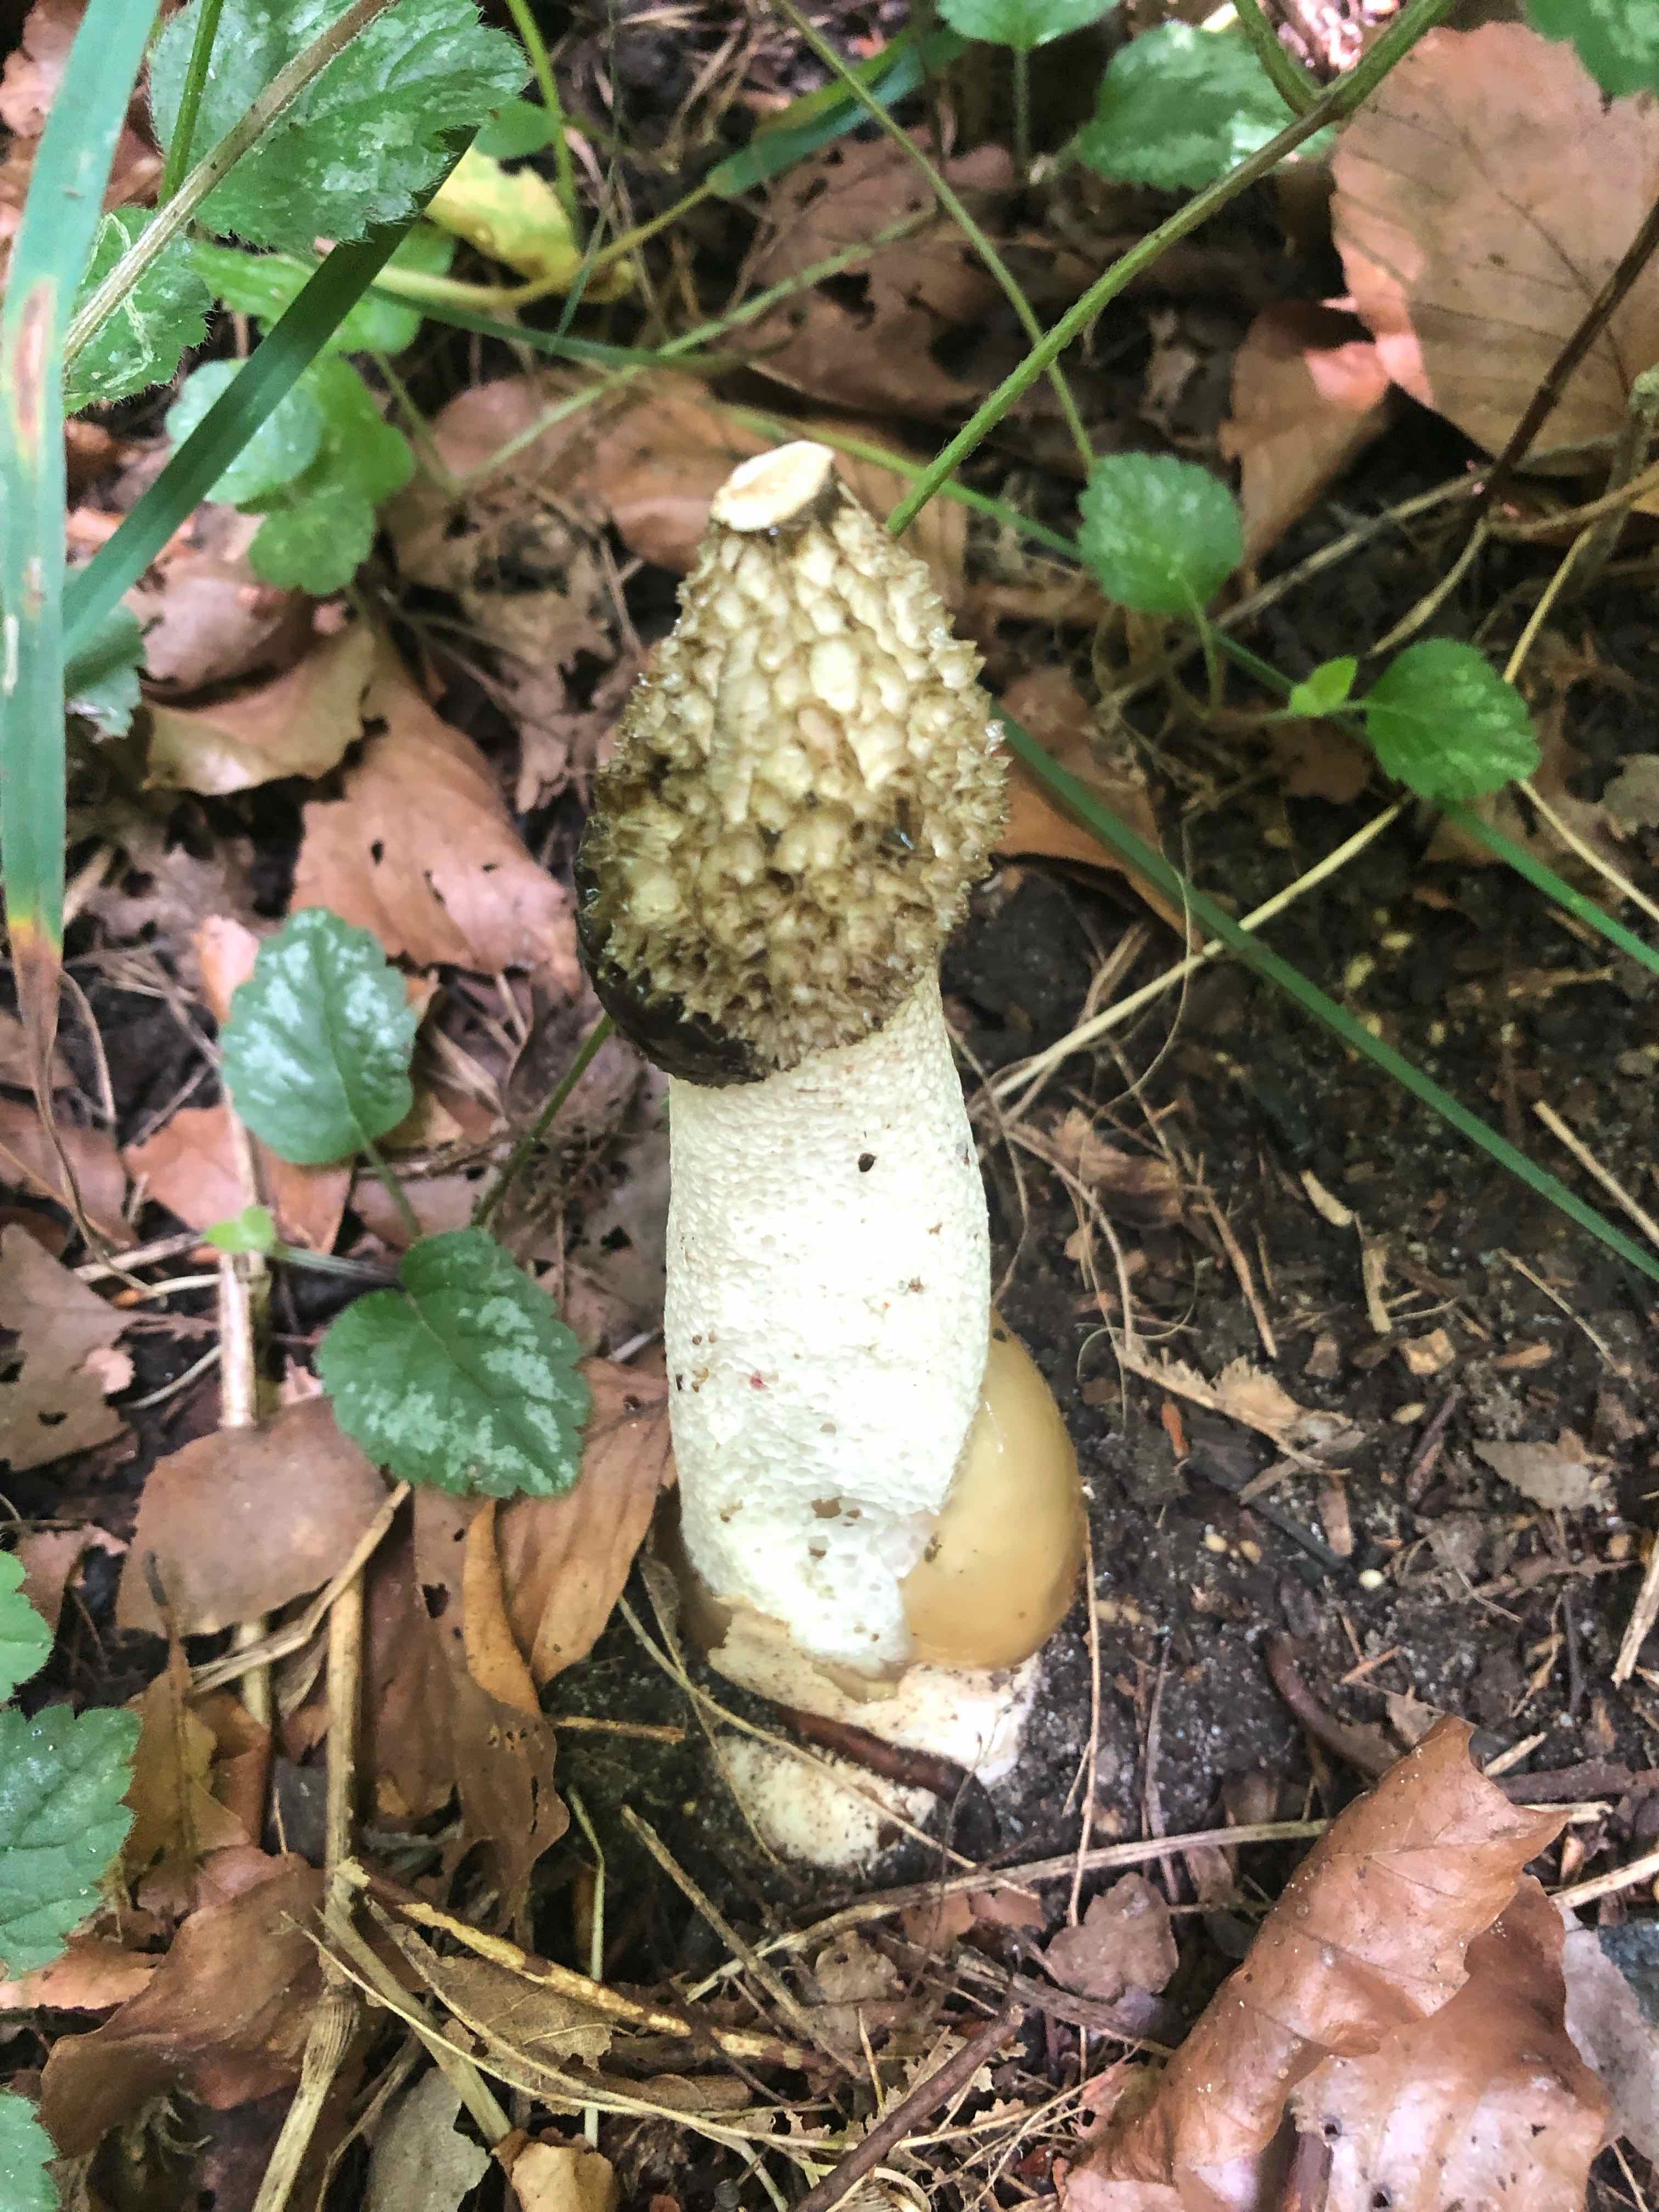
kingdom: Fungi
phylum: Basidiomycota
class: Agaricomycetes
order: Phallales
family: Phallaceae
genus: Phallus
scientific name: Phallus impudicus
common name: almindelig stinksvamp
